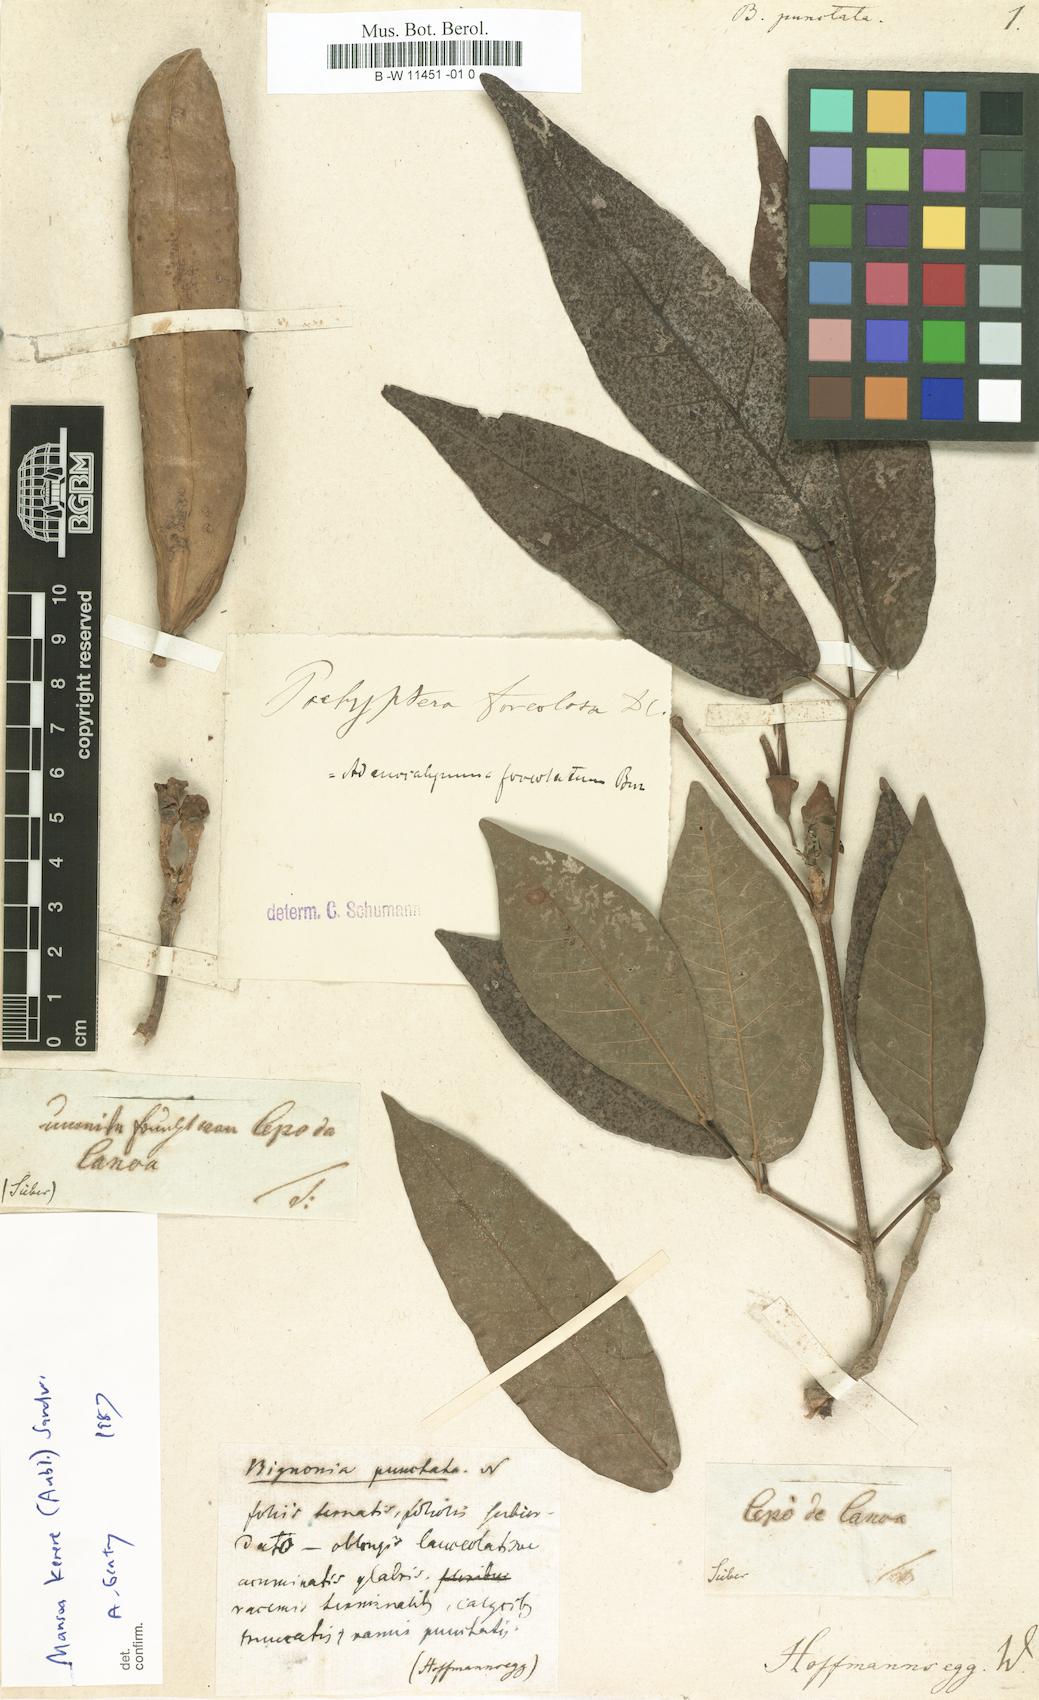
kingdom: Plantae
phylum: Tracheophyta
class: Magnoliopsida
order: Lamiales
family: Bignoniaceae
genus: Stizophyllum
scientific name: Stizophyllum perforatum
